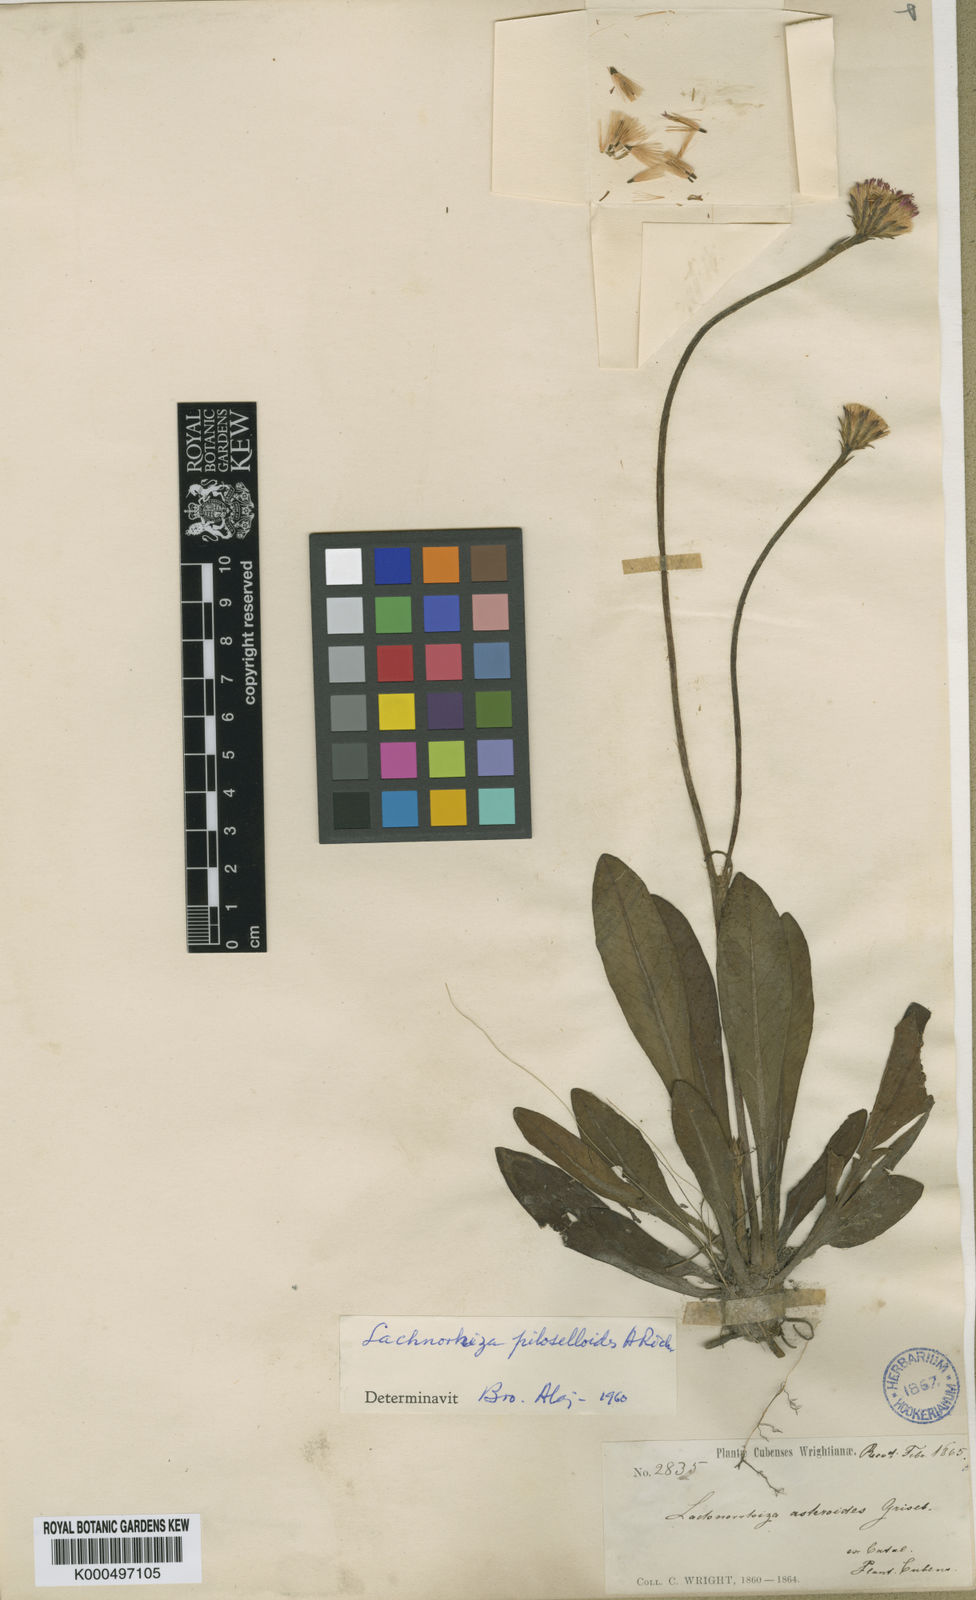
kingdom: Plantae
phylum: Tracheophyta
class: Magnoliopsida
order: Asterales
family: Asteraceae
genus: Lachnorhiza
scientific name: Lachnorhiza piloselloides
